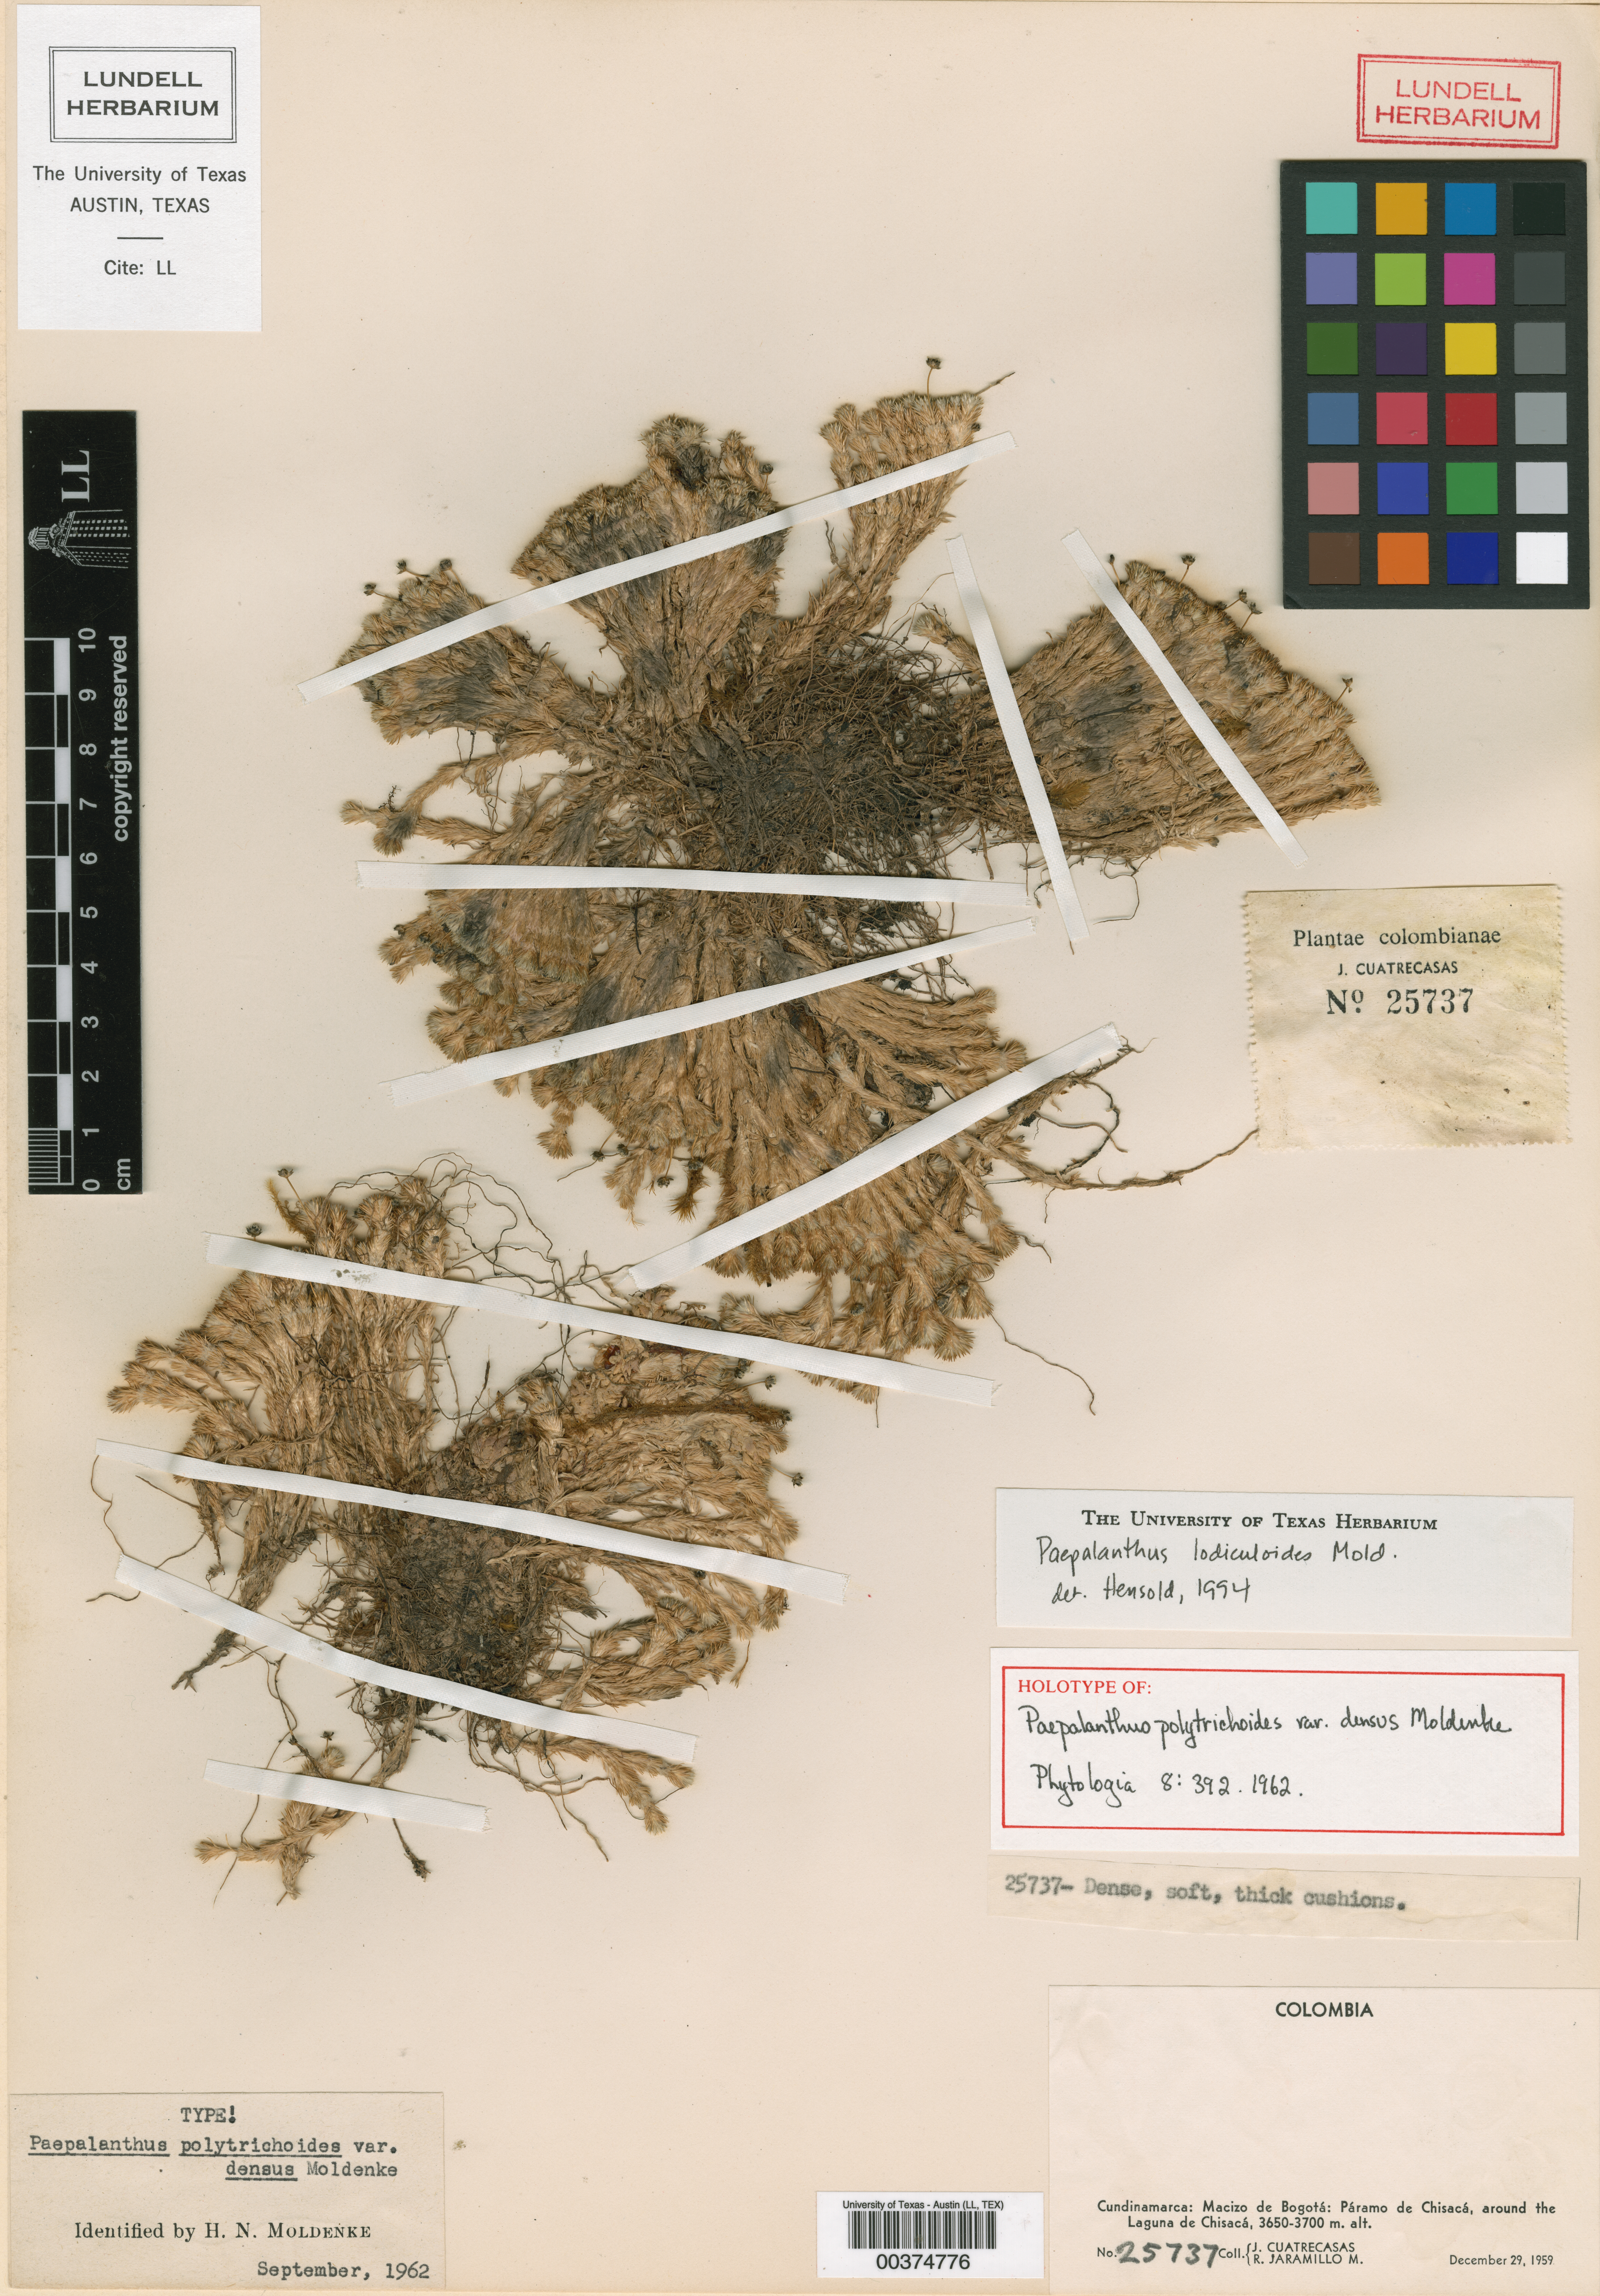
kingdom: Plantae
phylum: Tracheophyta
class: Liliopsida
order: Poales
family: Eriocaulaceae
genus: Paepalanthus
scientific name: Paepalanthus lodiculoides
